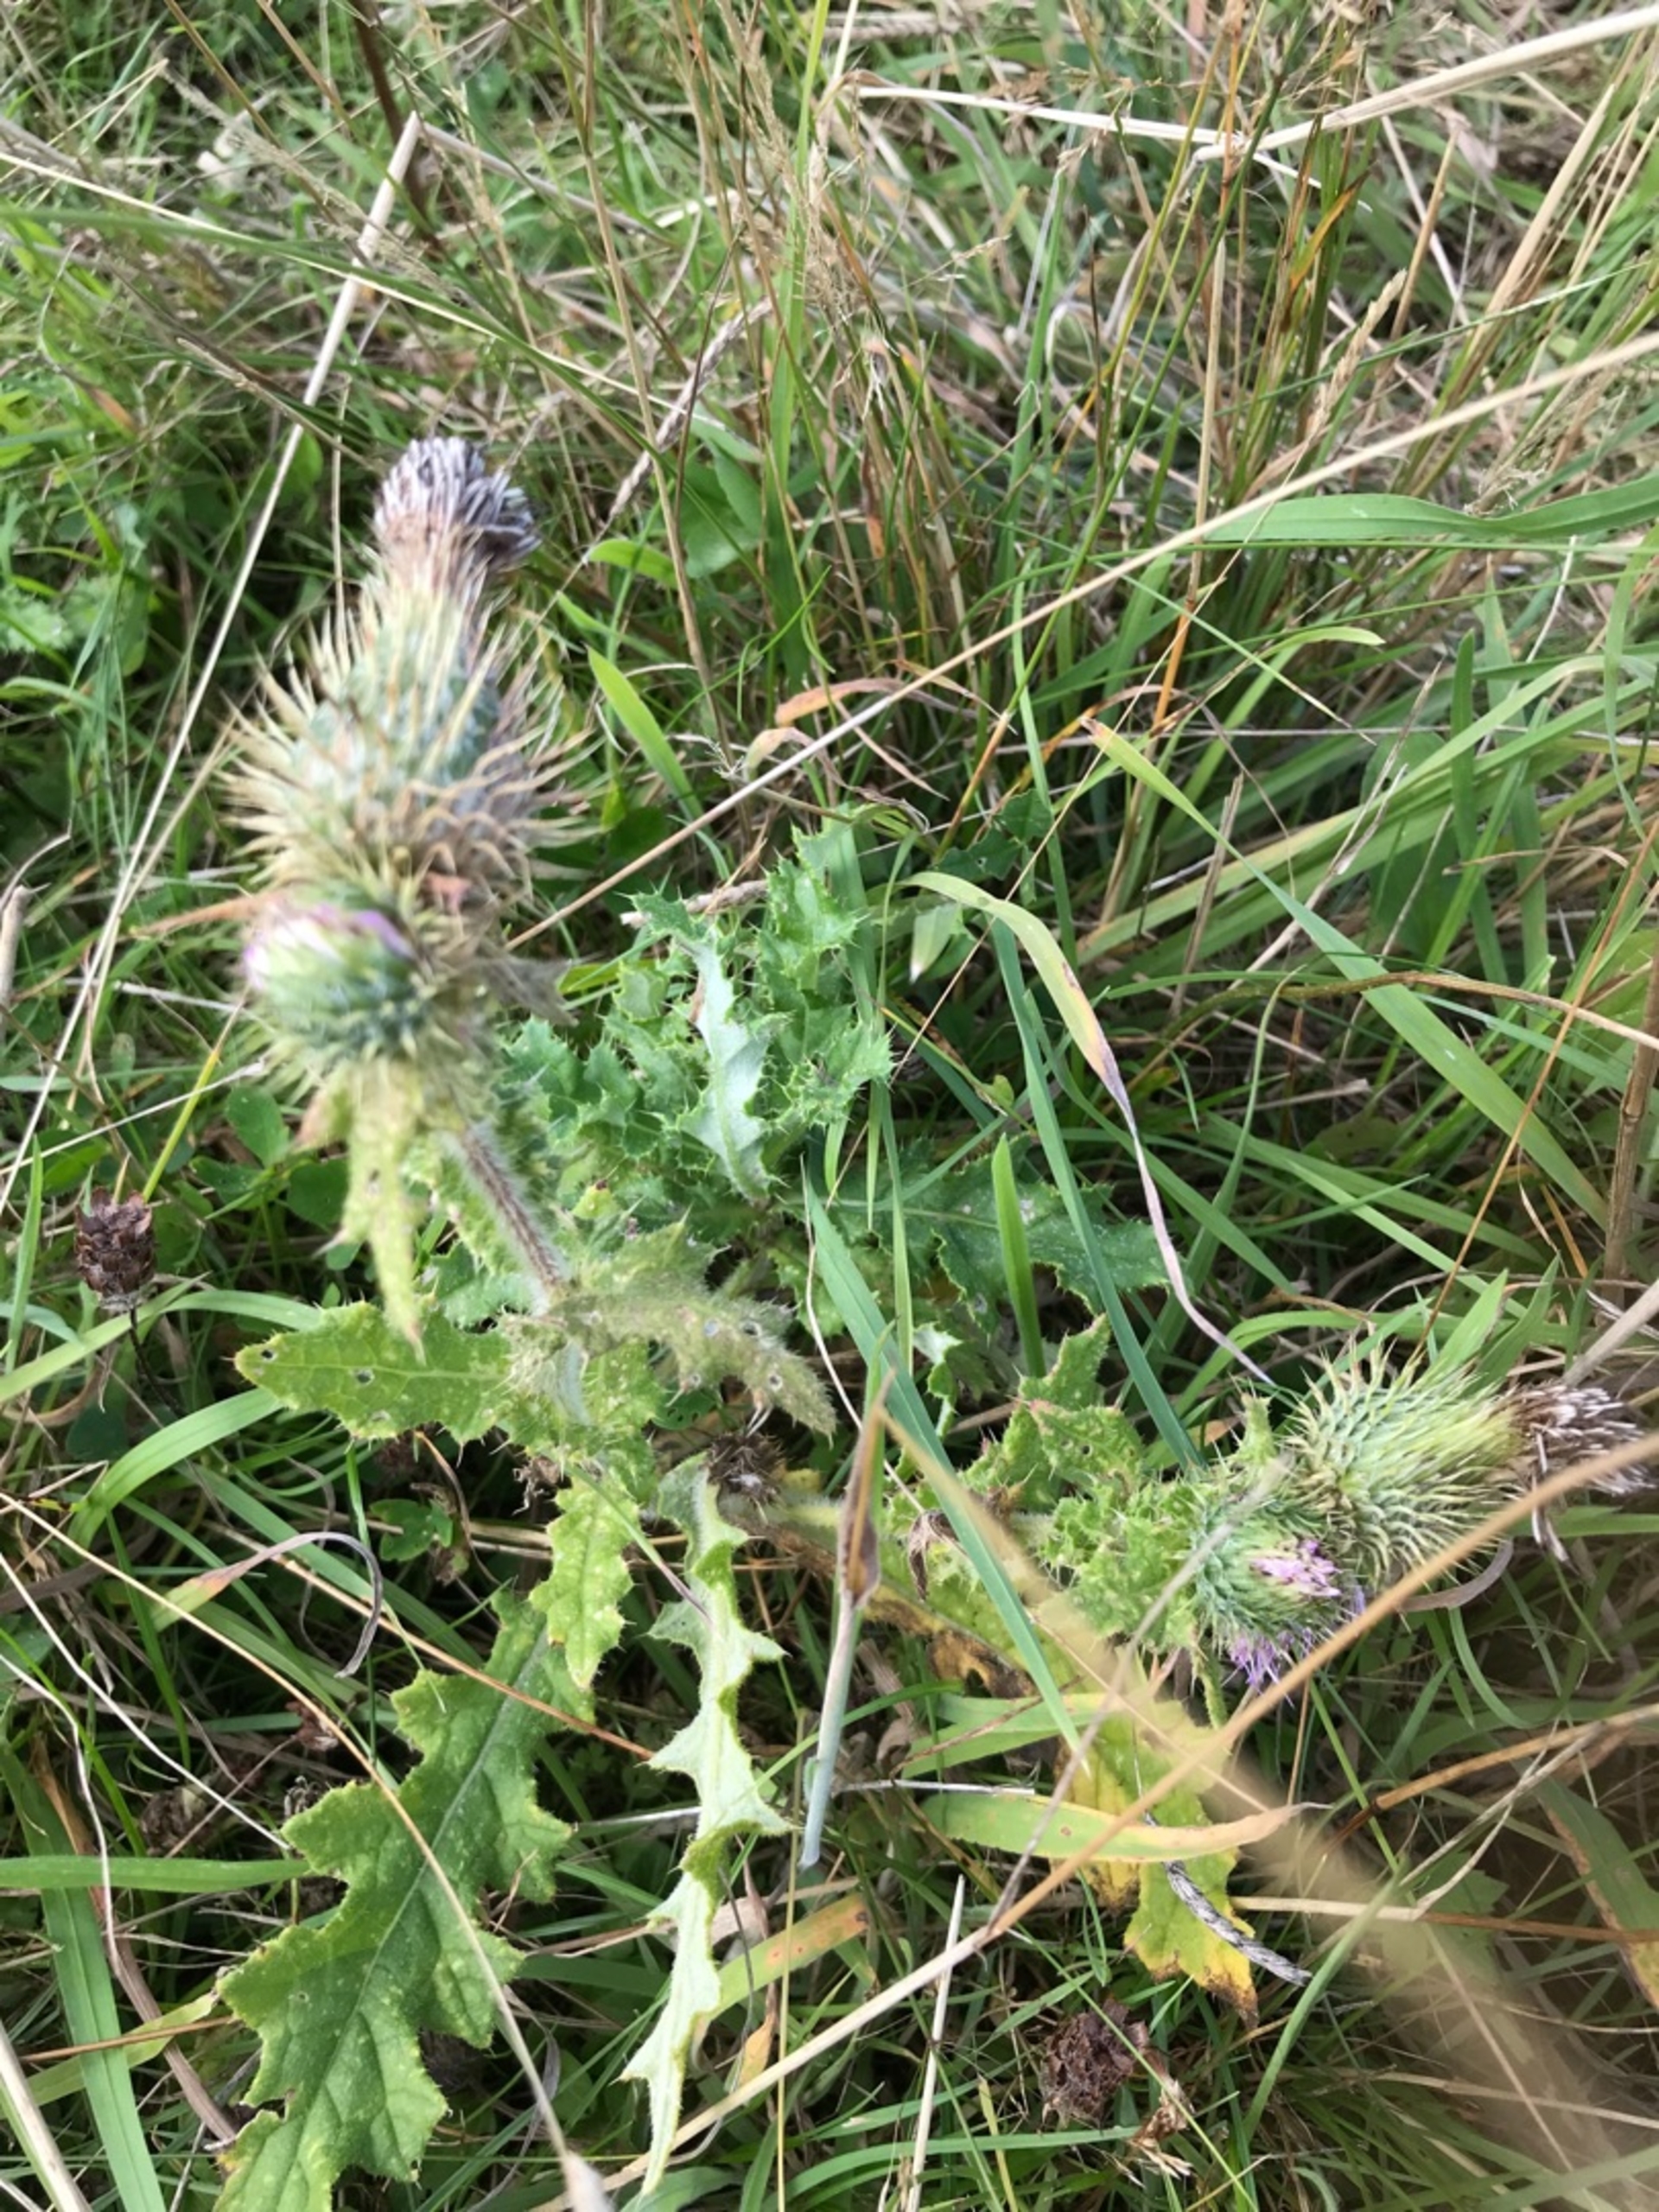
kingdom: Plantae
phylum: Tracheophyta
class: Magnoliopsida
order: Asterales
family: Asteraceae
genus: Cirsium
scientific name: Cirsium vulgare
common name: Horse-tidsel
